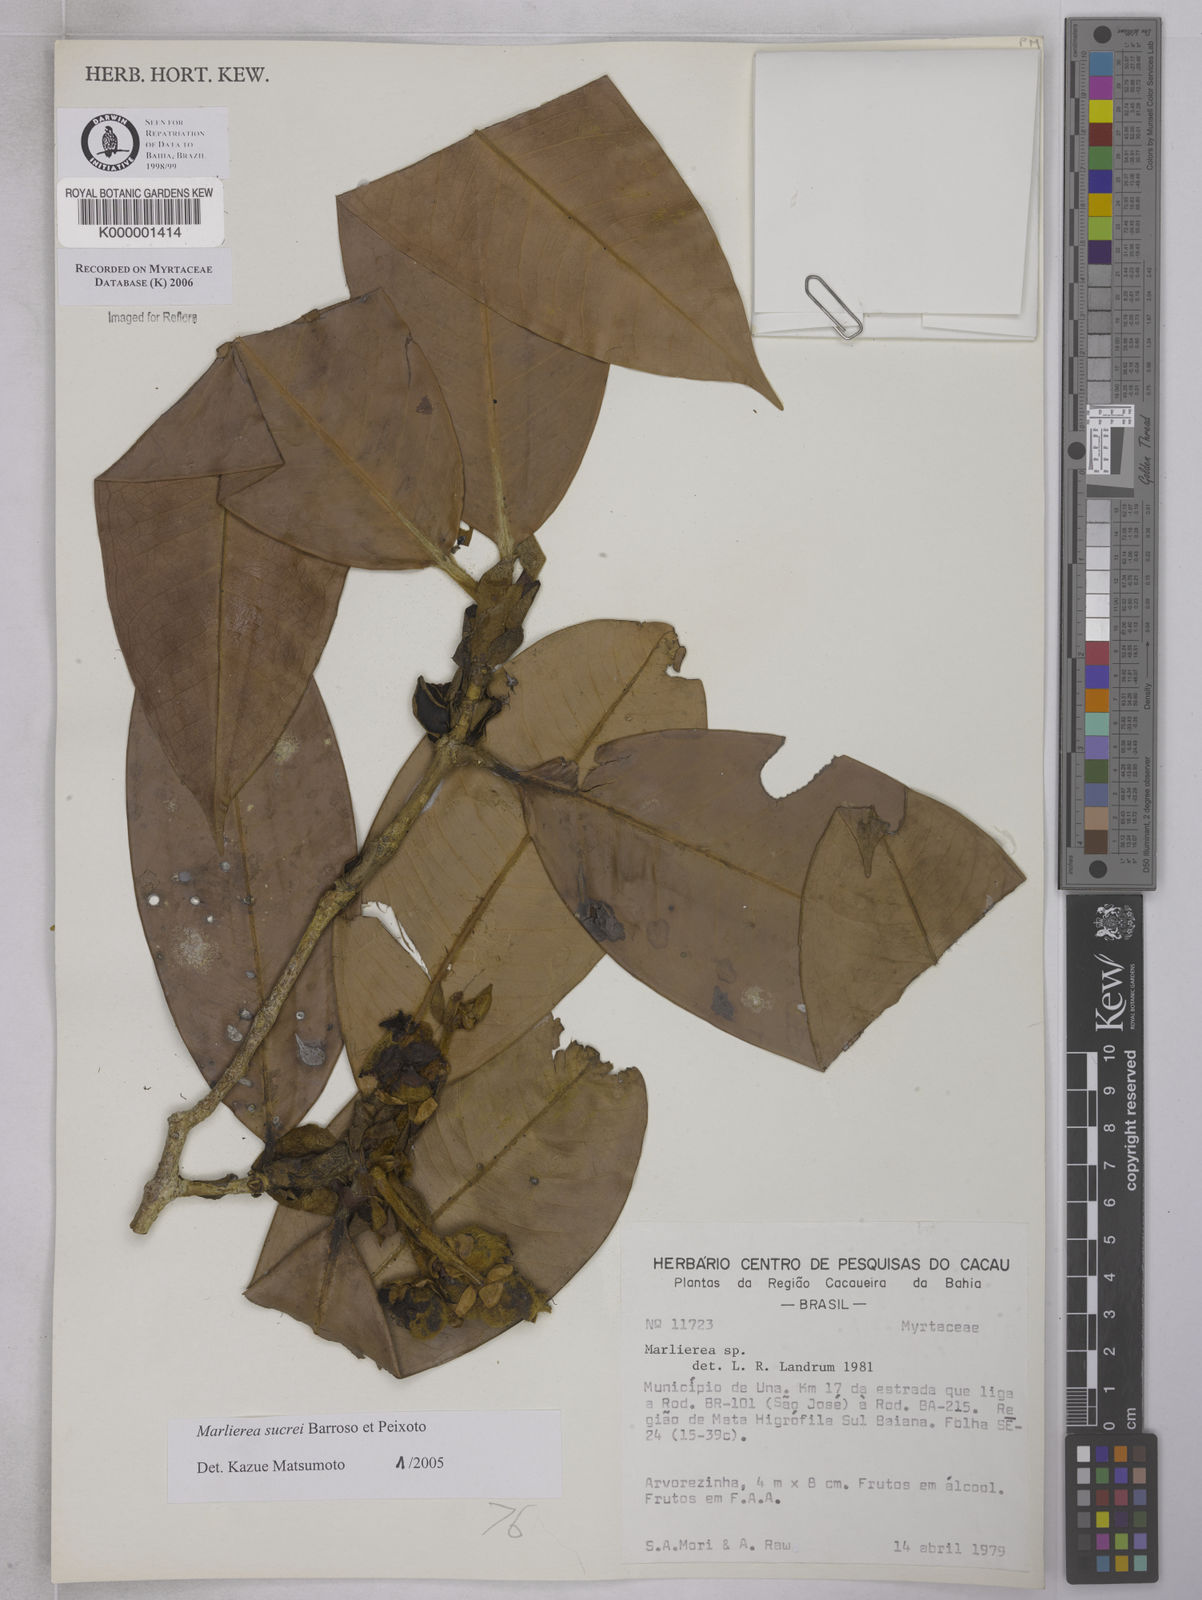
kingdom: Plantae
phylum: Tracheophyta
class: Magnoliopsida
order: Myrtales
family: Myrtaceae
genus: Marlierea
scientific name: Marlierea
